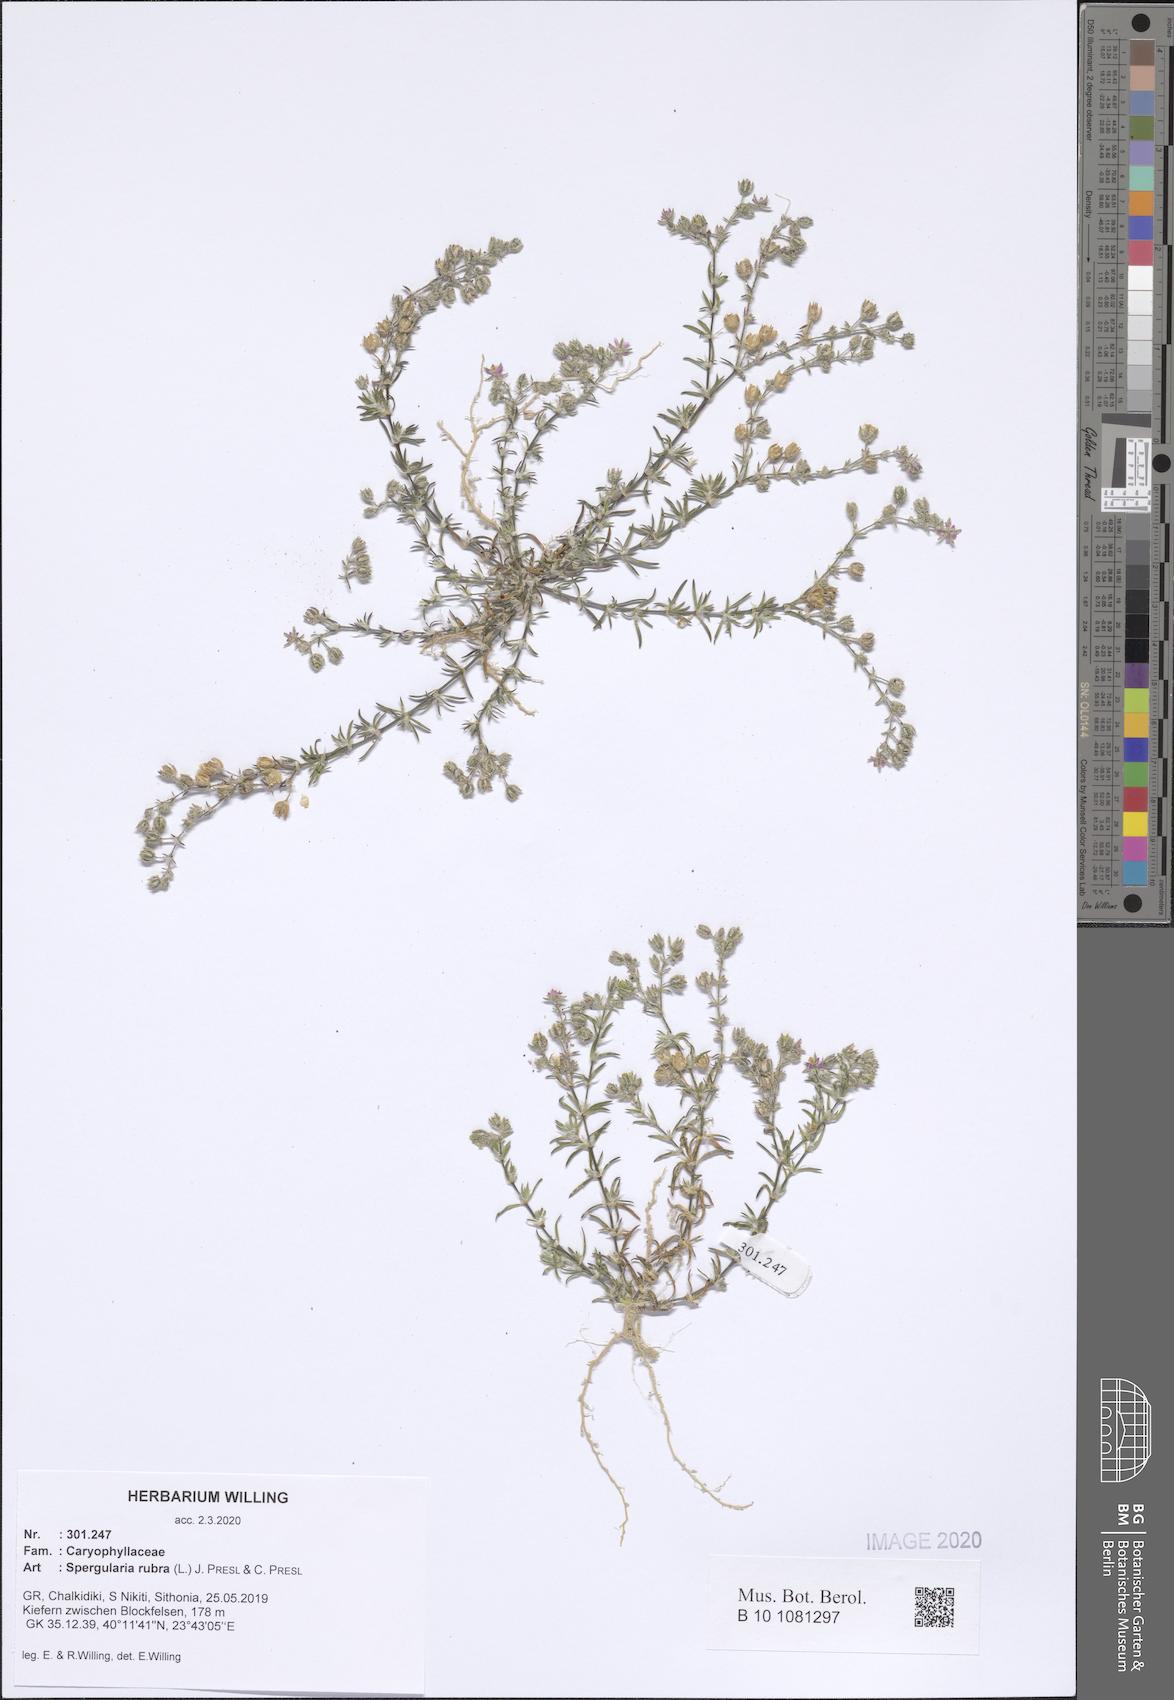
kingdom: Plantae
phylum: Tracheophyta
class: Magnoliopsida
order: Caryophyllales
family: Caryophyllaceae
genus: Spergularia
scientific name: Spergularia rubra
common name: Red sand-spurrey
